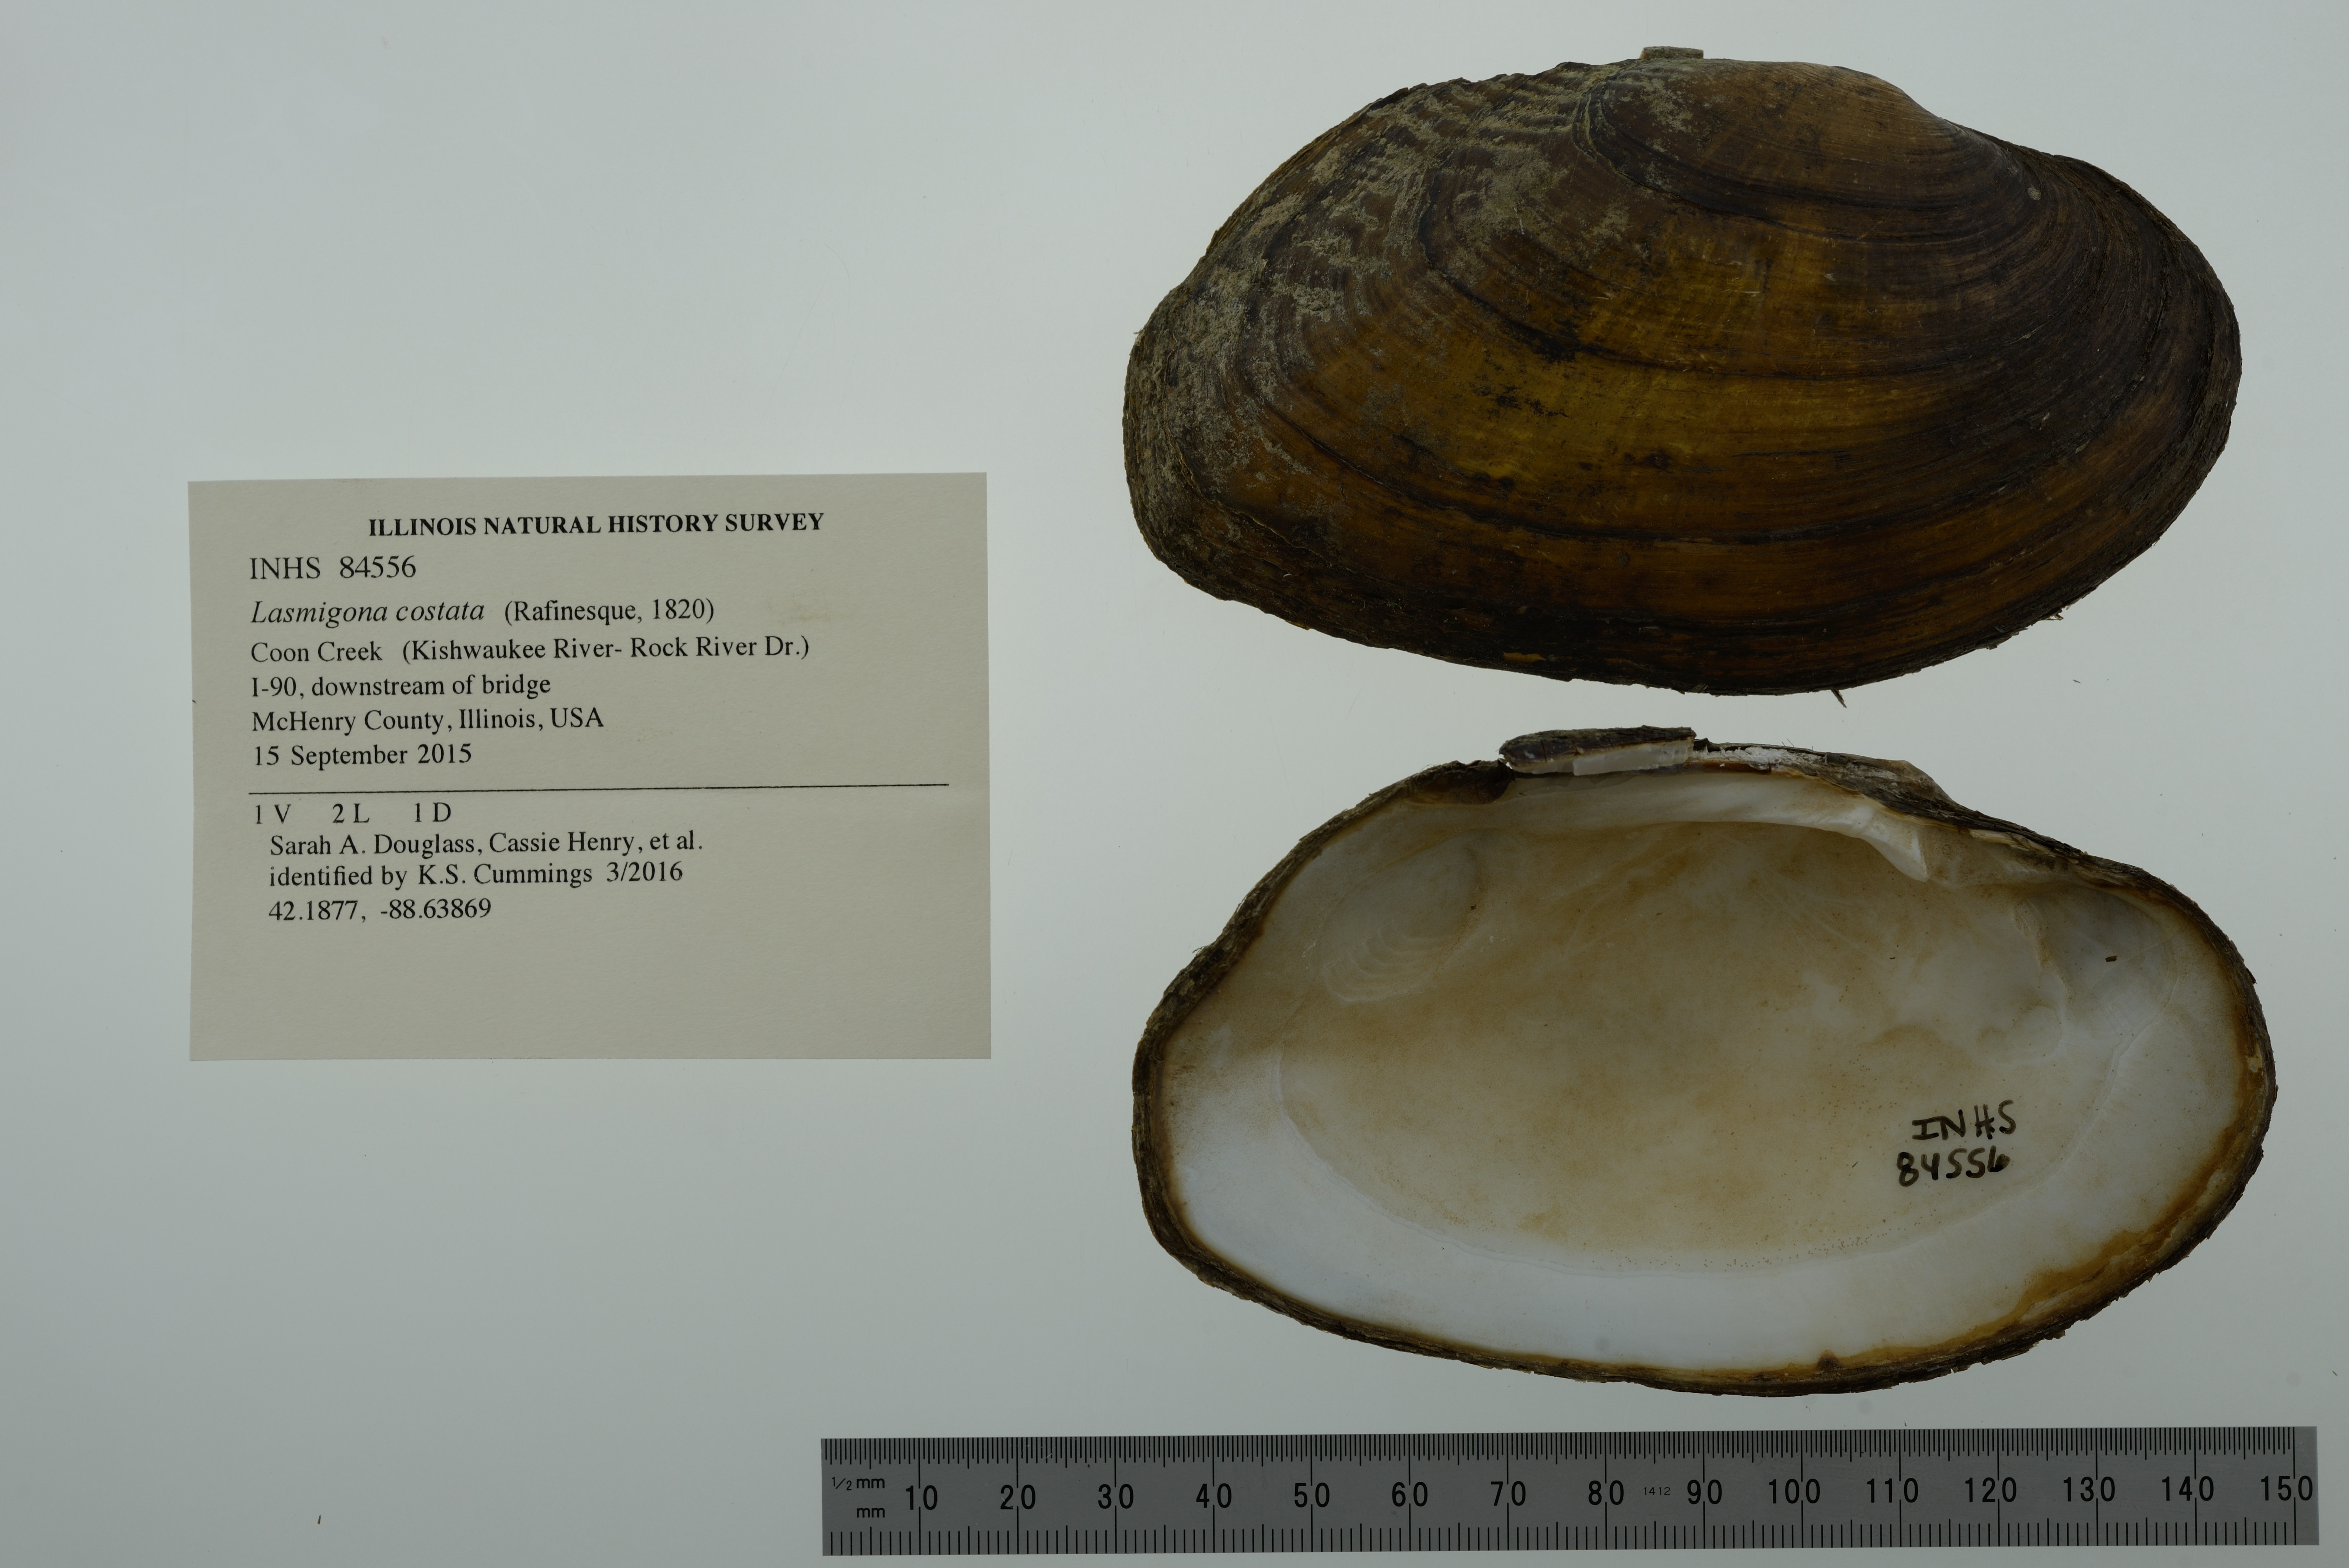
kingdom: Animalia
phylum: Mollusca
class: Bivalvia
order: Unionida
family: Unionidae
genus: Lasmigona
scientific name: Lasmigona costata
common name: Flutedshell
